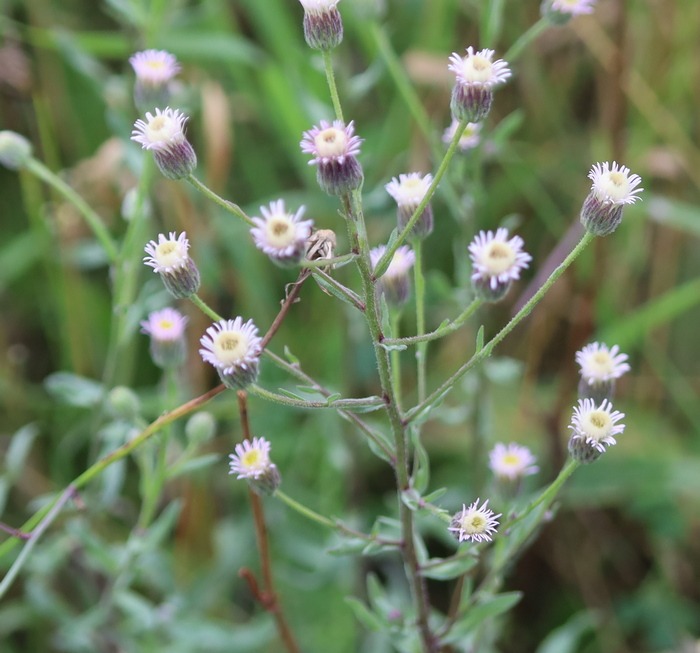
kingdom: Plantae
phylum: Tracheophyta
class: Magnoliopsida
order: Asterales
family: Asteraceae
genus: Erigeron
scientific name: Erigeron acris
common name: Bitter bakkestjerne
